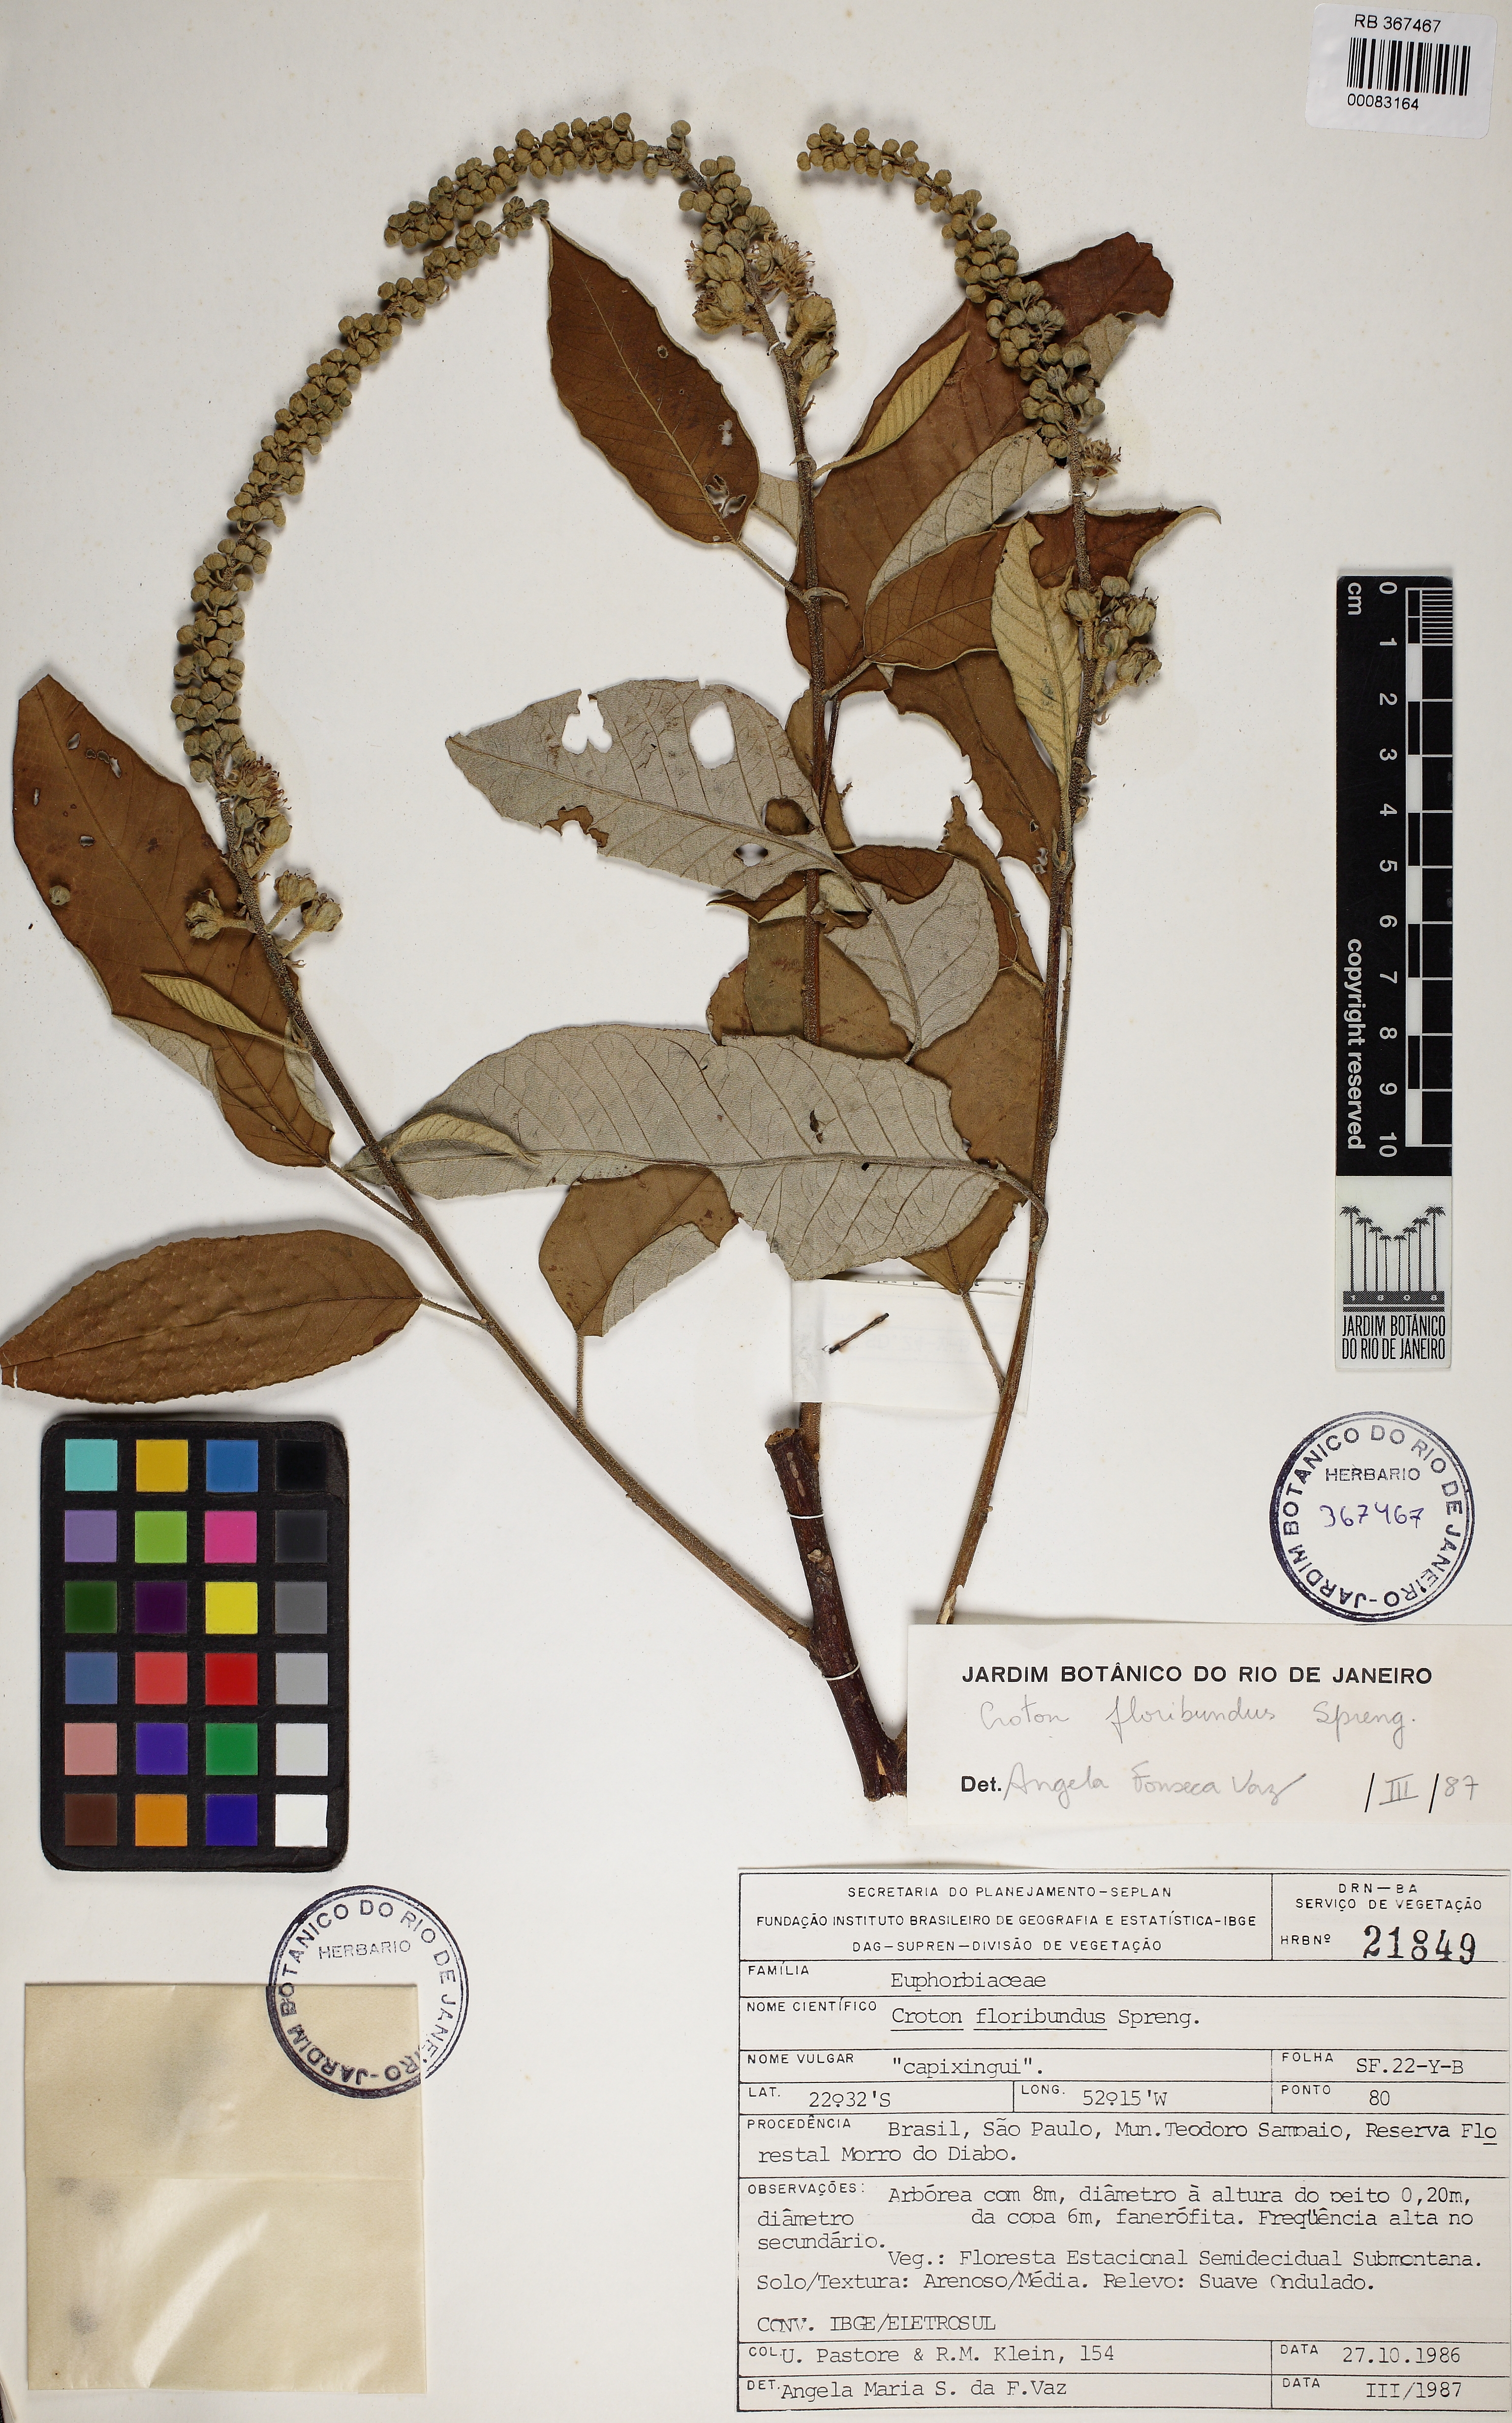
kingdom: Plantae
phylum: Tracheophyta
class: Magnoliopsida
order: Malpighiales
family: Euphorbiaceae
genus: Croton
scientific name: Croton floribundus
